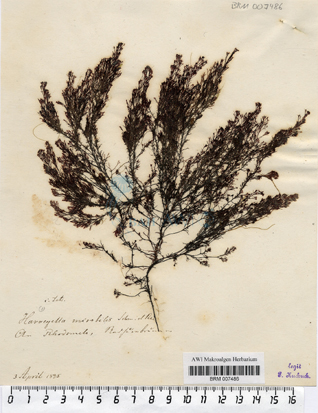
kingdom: Plantae
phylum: Rhodophyta
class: Florideophyceae
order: Ceramiales
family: Rhodomelaceae
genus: Harveyella
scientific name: Harveyella mirabilis
